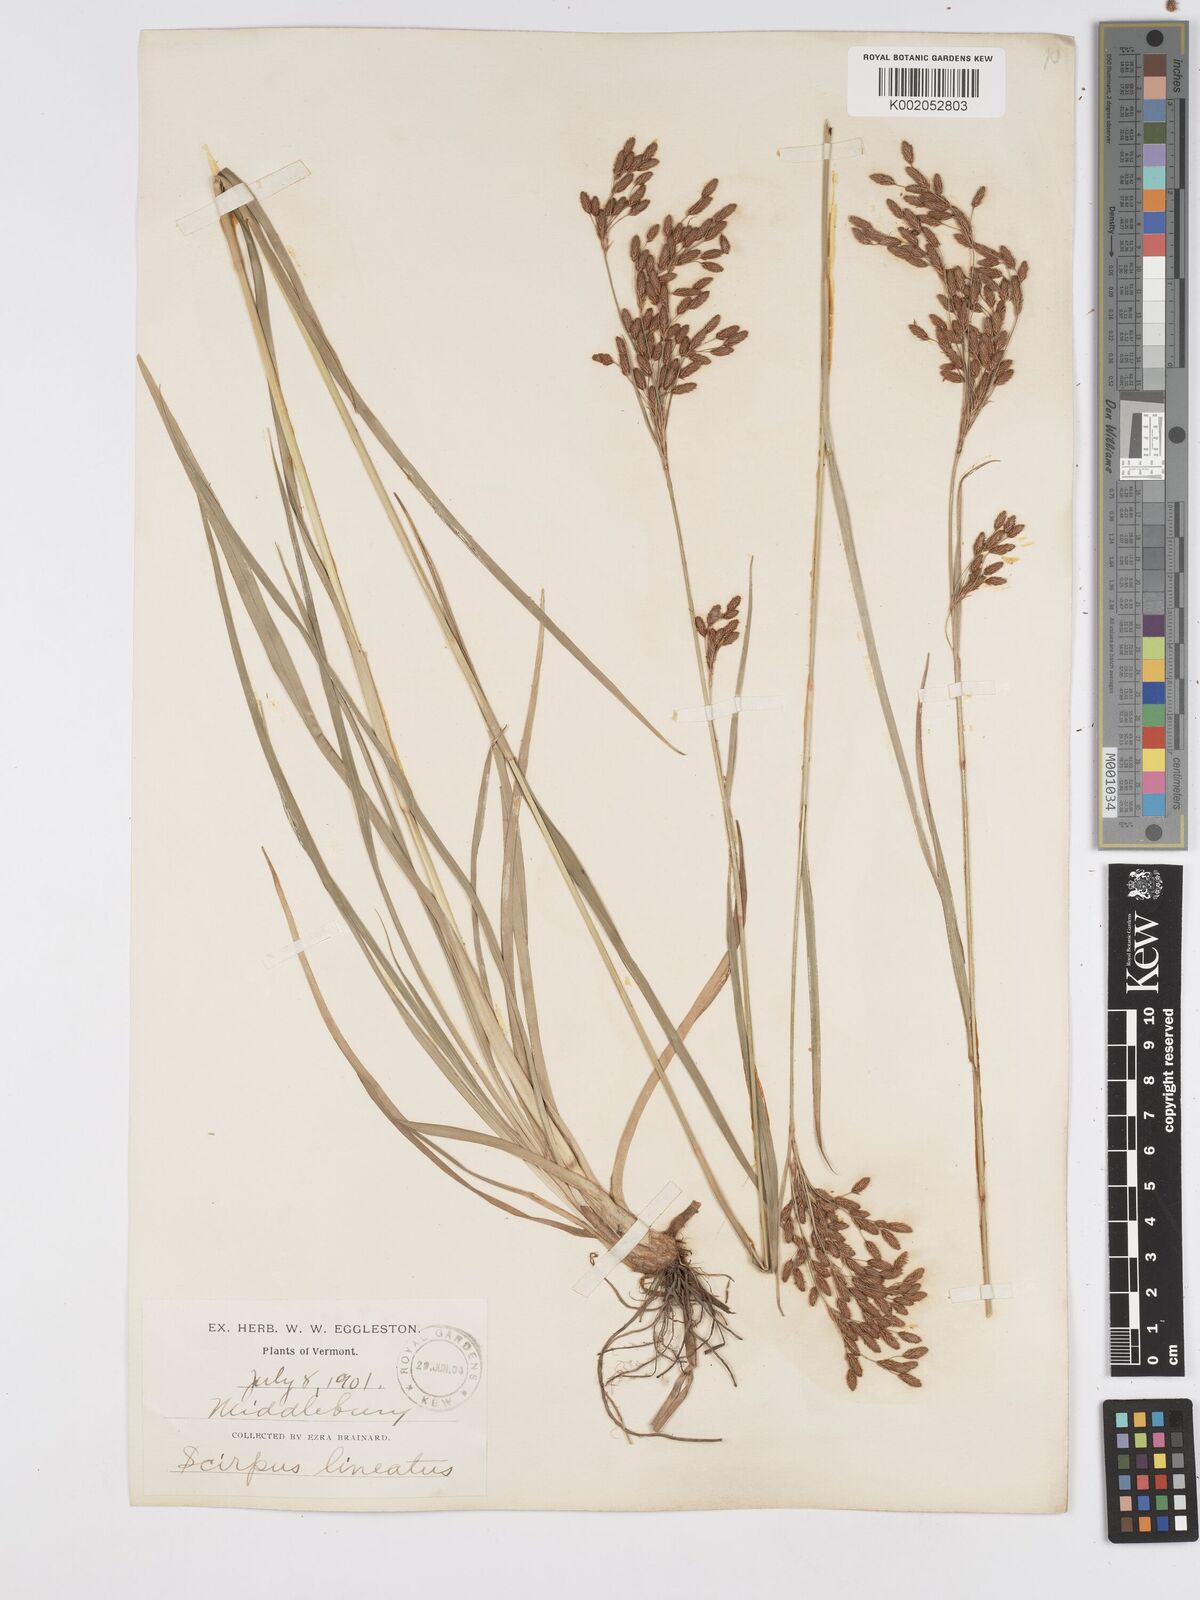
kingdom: Plantae
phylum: Tracheophyta
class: Liliopsida
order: Poales
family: Cyperaceae
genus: Scirpus
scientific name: Scirpus lineatus
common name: Drooping bulrush
